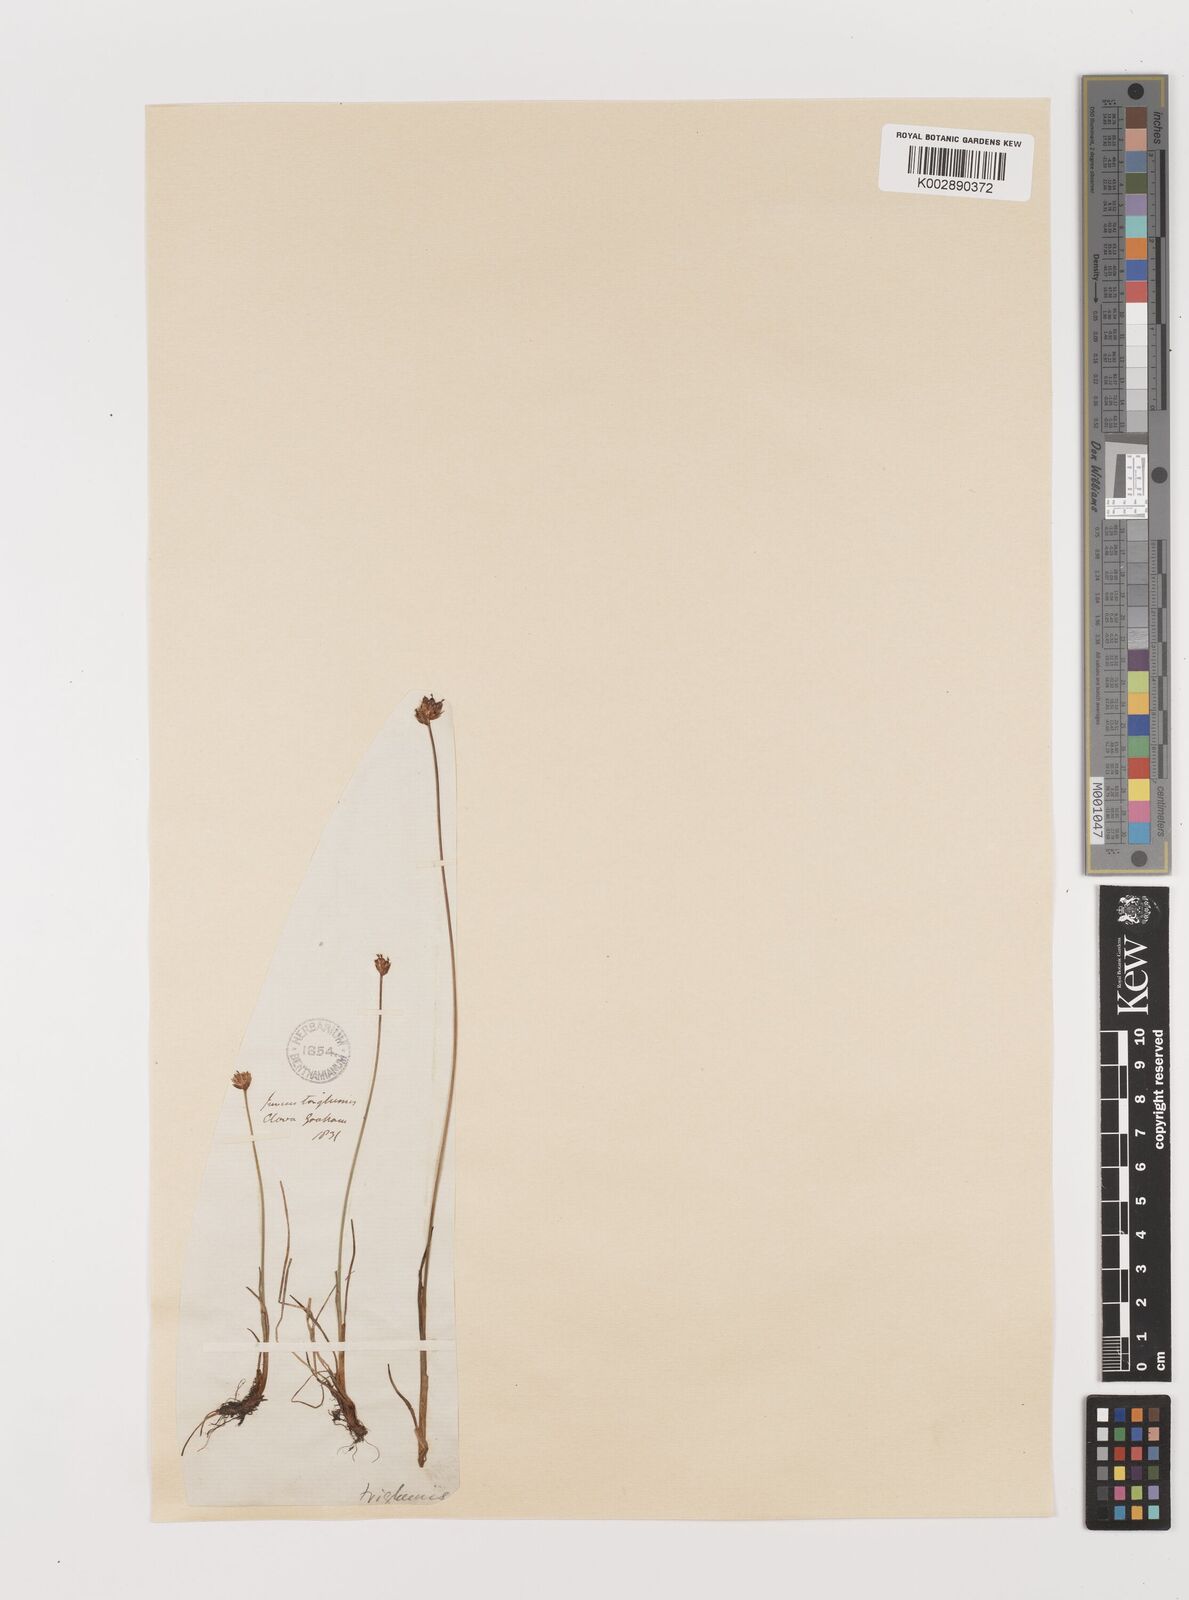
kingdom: Plantae
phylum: Tracheophyta
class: Liliopsida
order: Poales
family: Juncaceae
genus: Juncus
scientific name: Juncus triglumis
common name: Three-flowered rush
